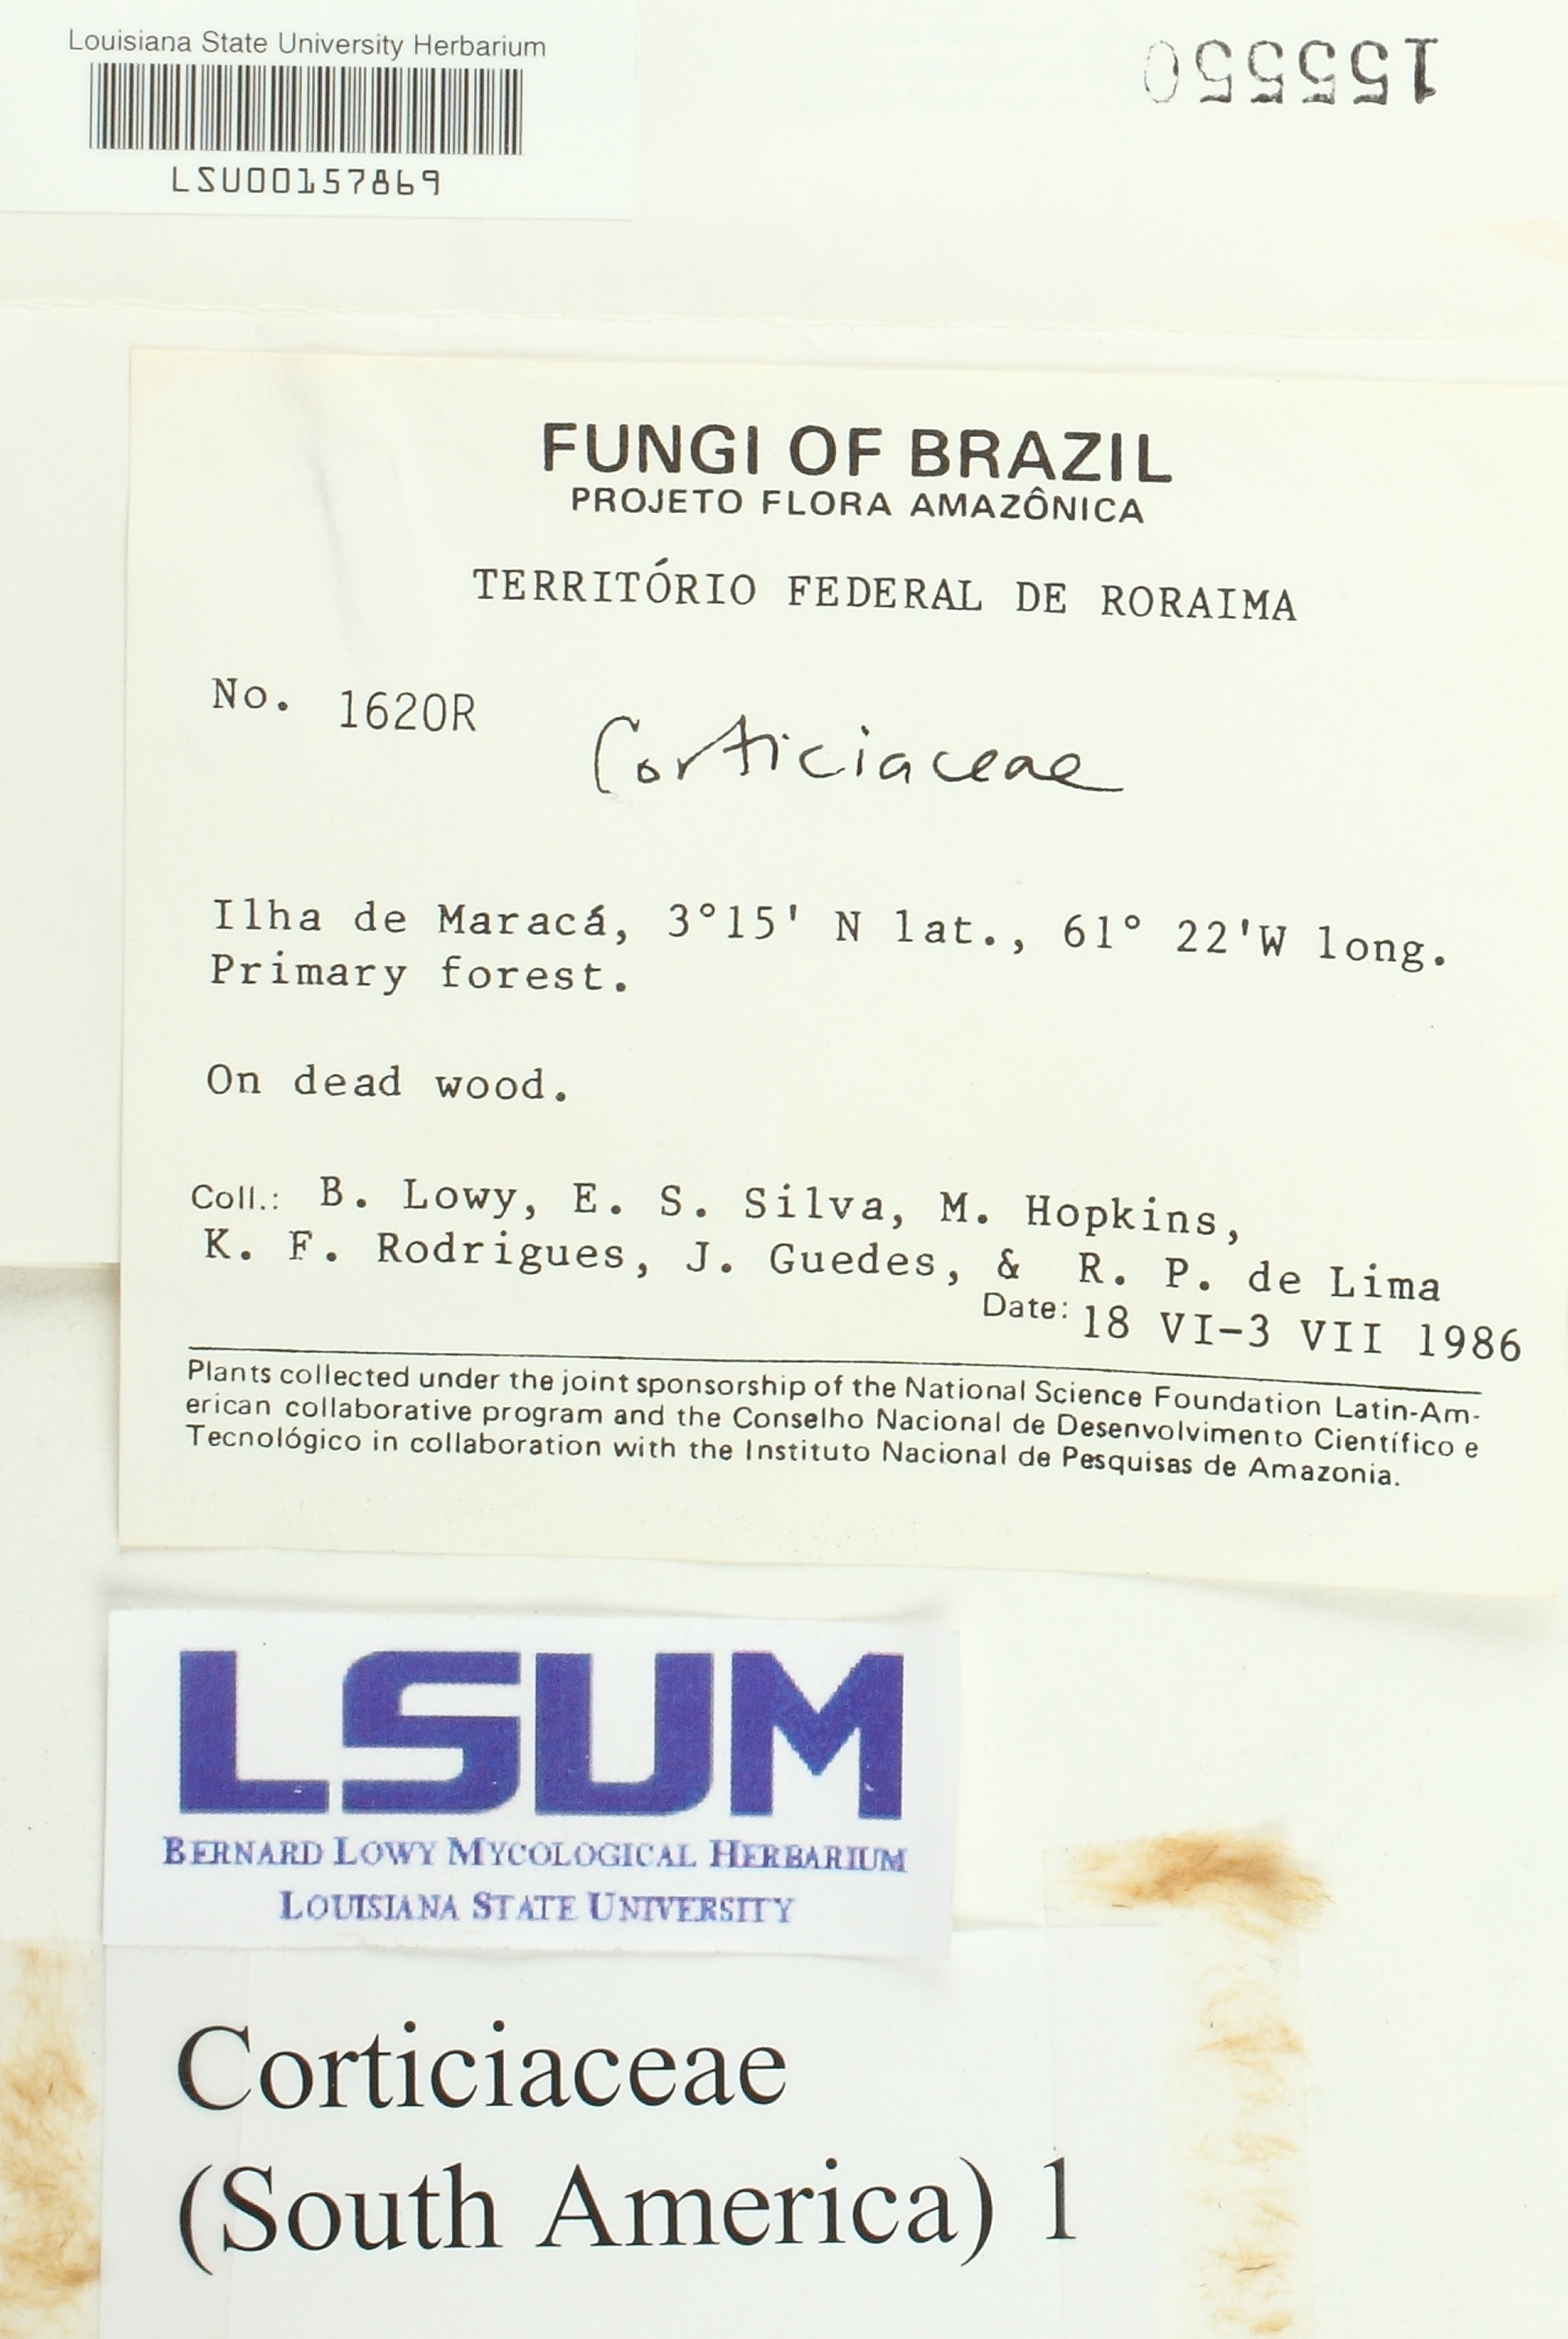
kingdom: Fungi
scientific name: Fungi
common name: Fungi
